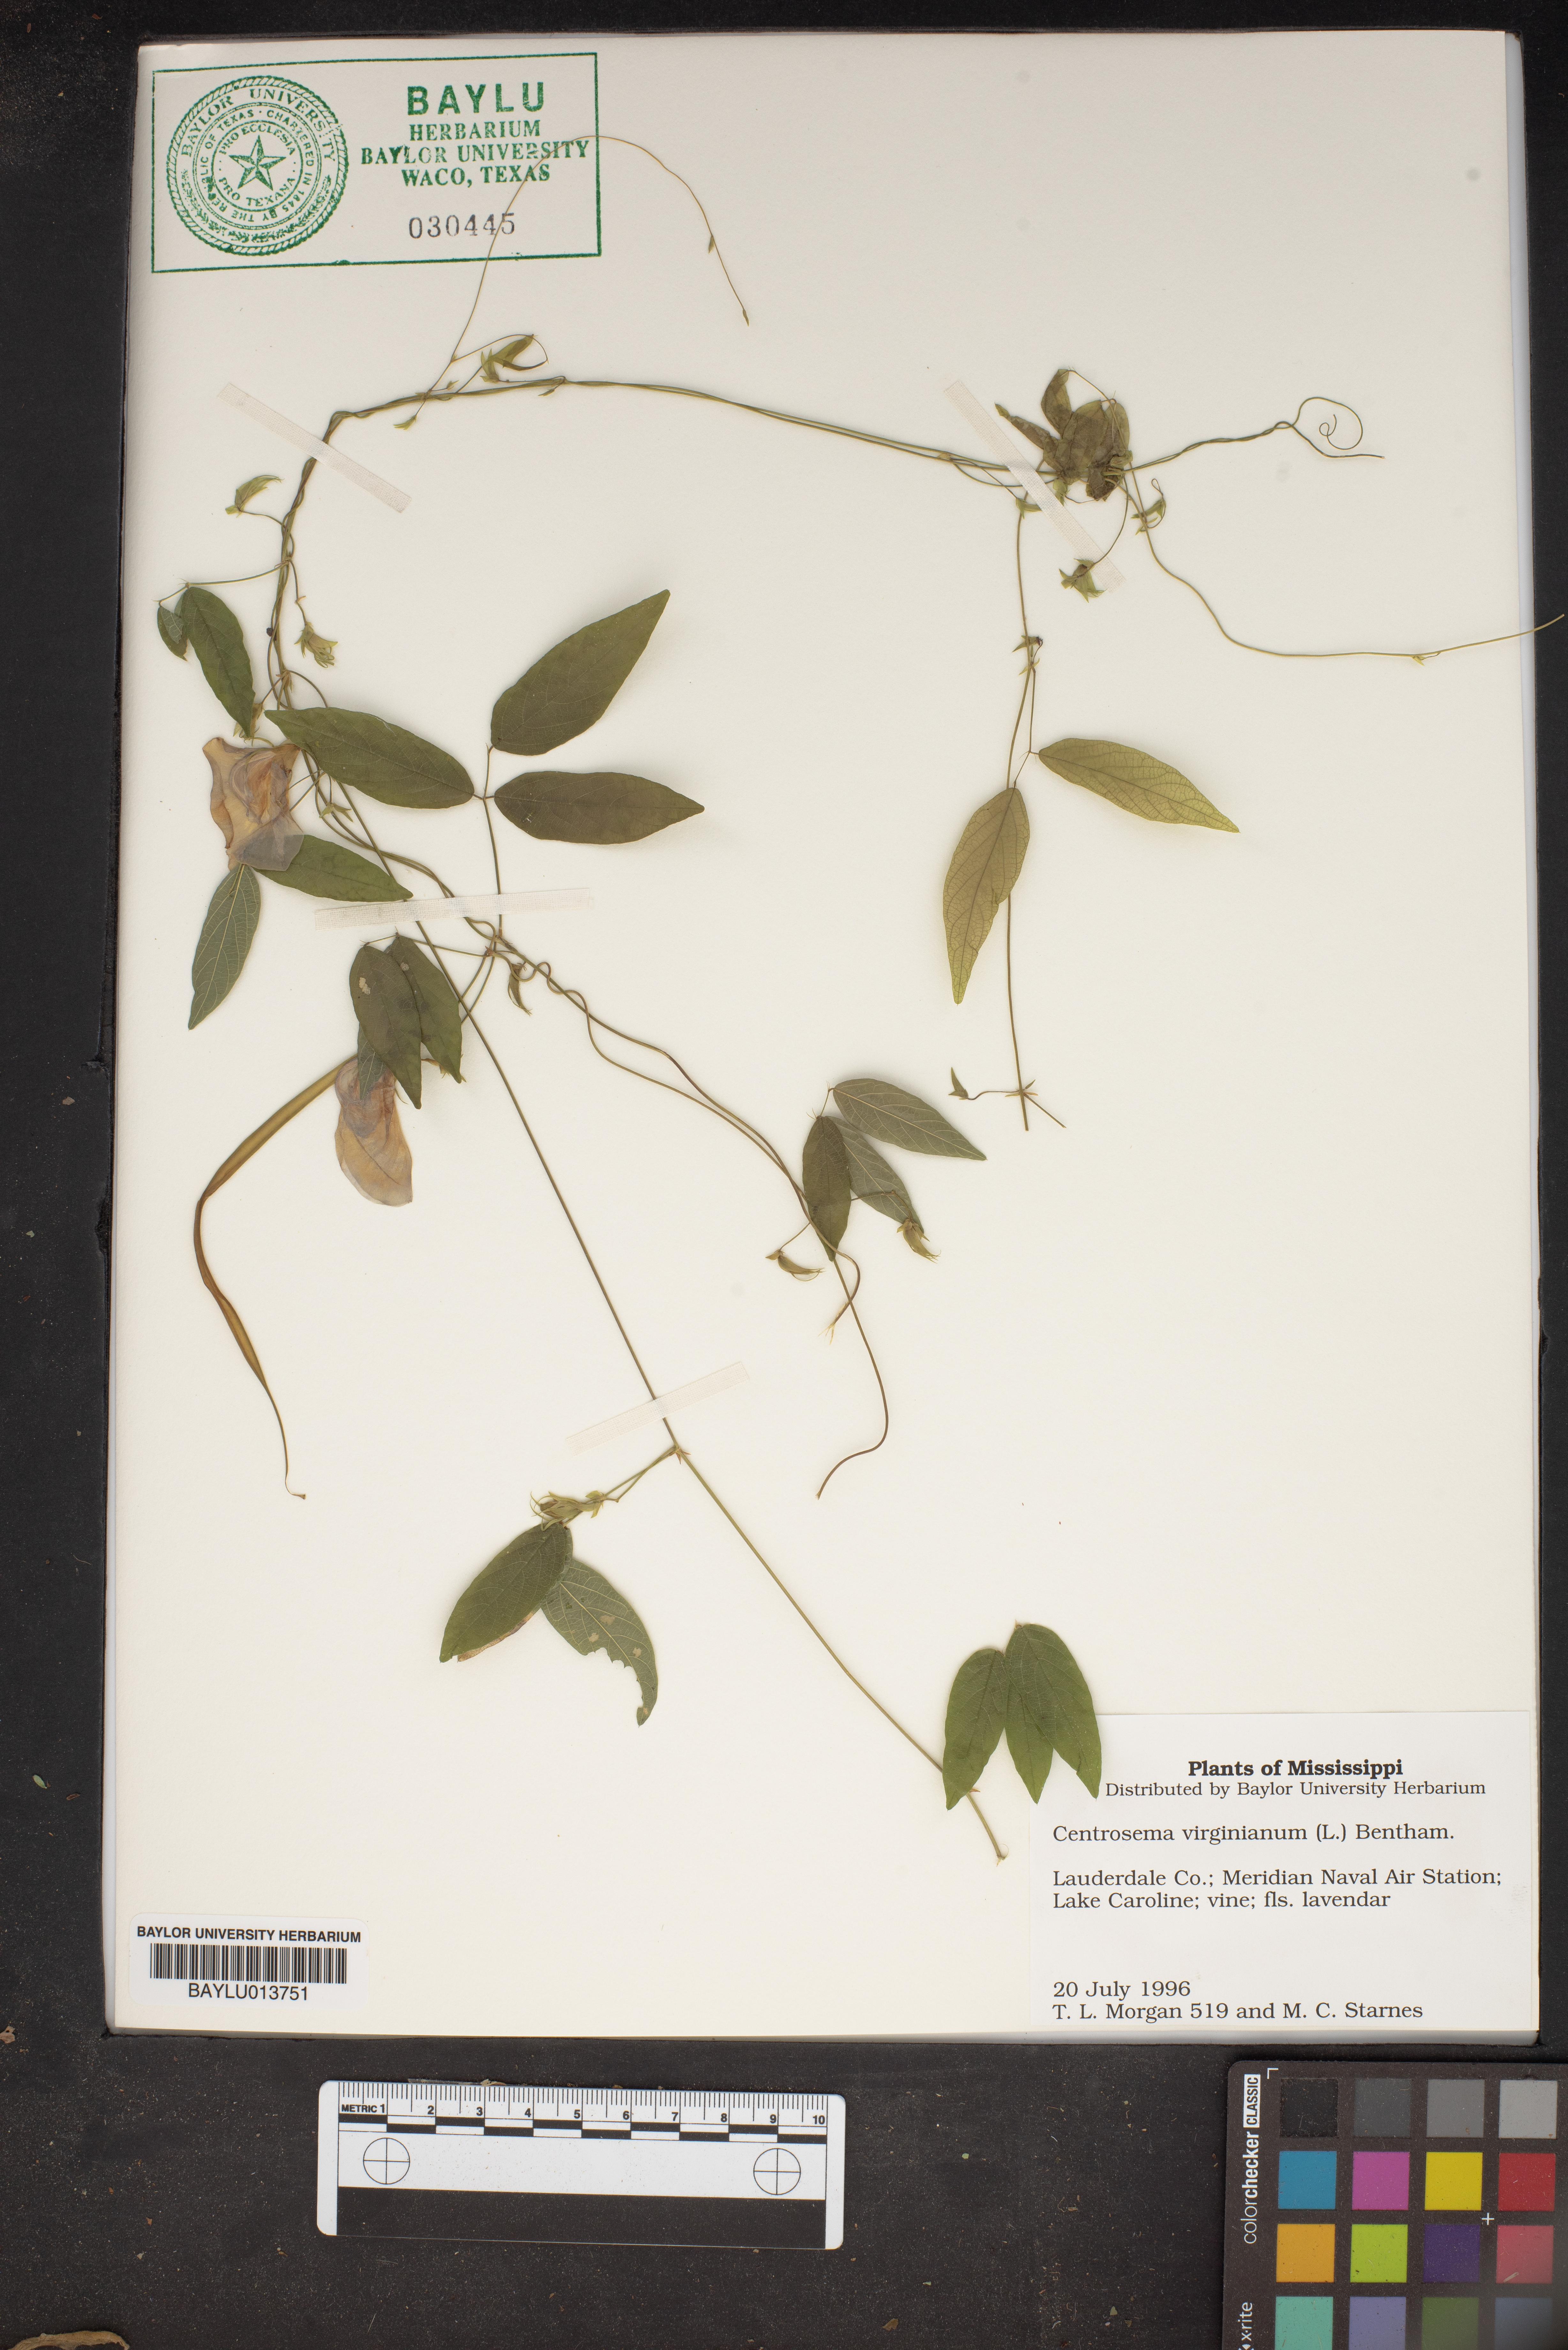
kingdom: Plantae
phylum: Tracheophyta
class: Magnoliopsida
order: Fabales
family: Fabaceae
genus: Centrosema
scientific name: Centrosema virginianum
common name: Butterfly-pea
